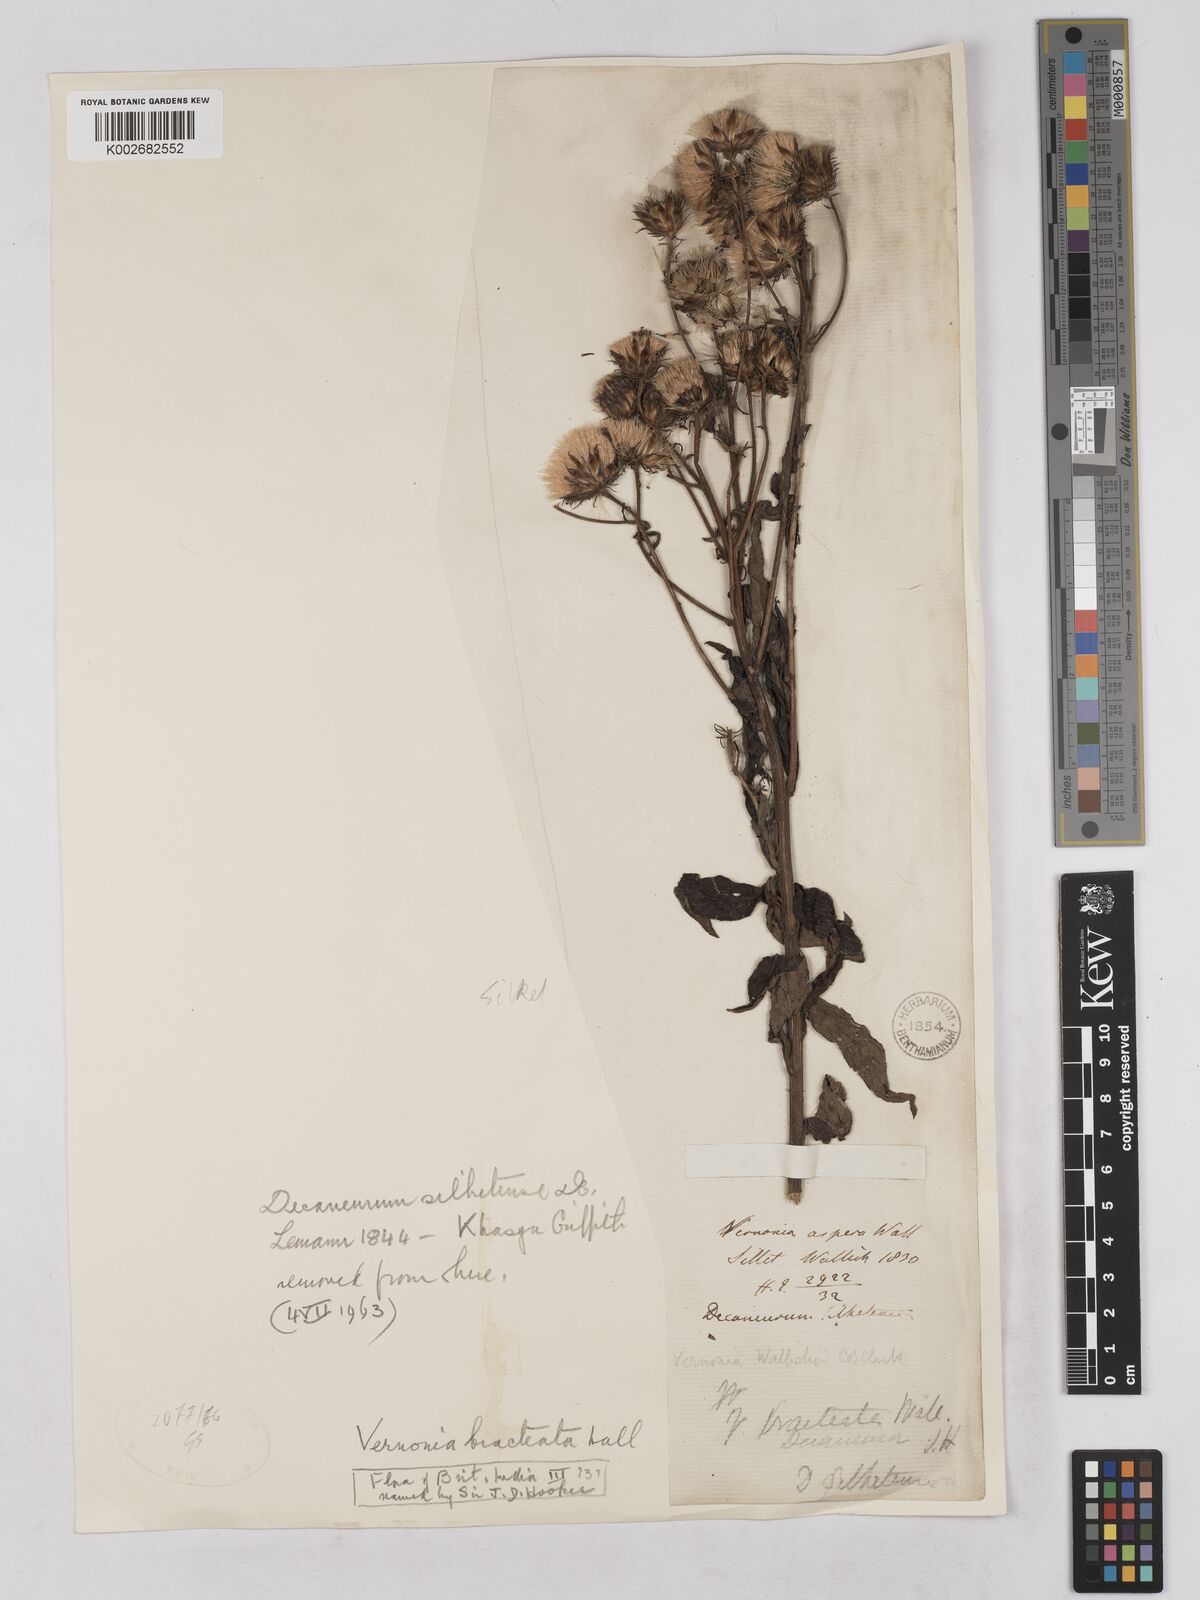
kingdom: Plantae
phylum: Tracheophyta
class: Magnoliopsida
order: Asterales
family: Asteraceae
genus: Acilepis
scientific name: Acilepis silhetensis
